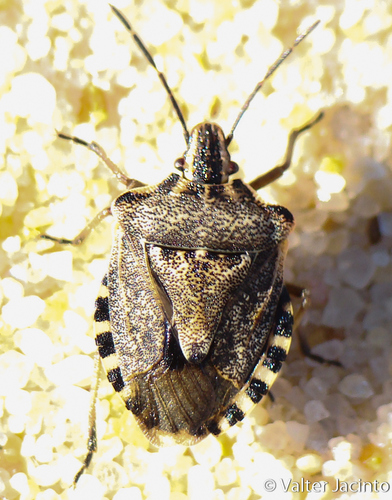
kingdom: Animalia
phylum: Arthropoda
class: Insecta
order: Hemiptera
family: Miridae
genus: Orthops
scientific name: Orthops kalmii
